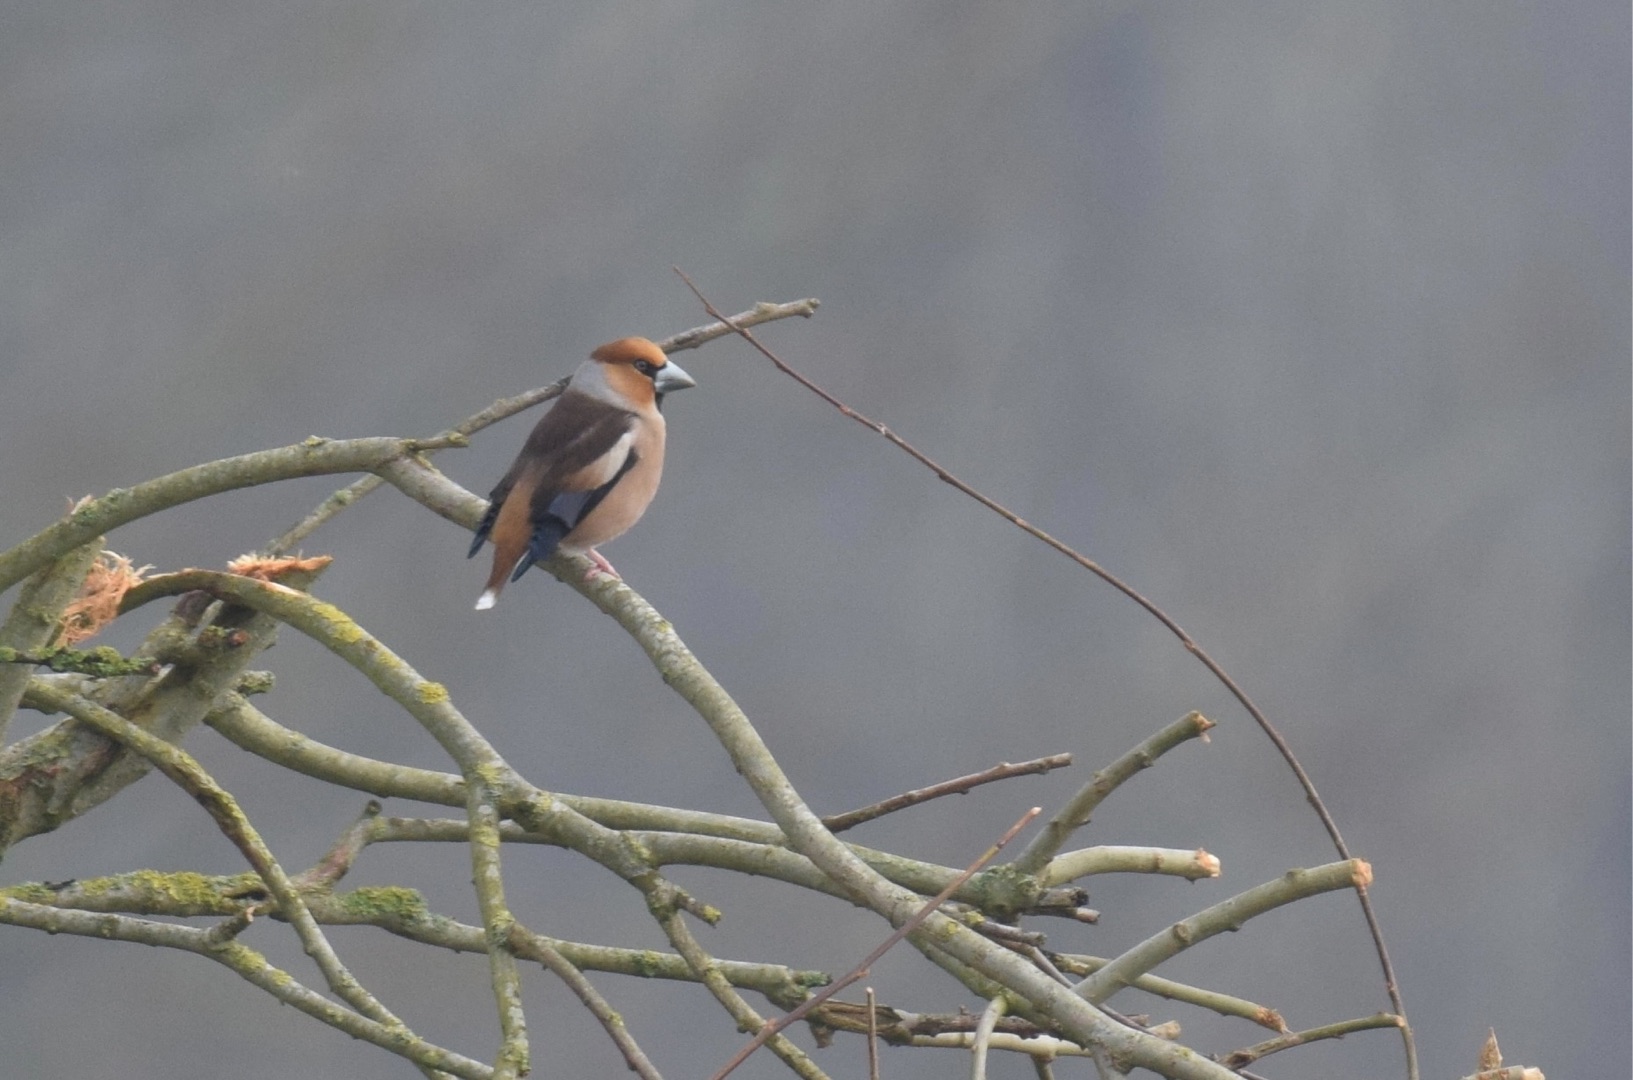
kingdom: Animalia
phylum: Chordata
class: Aves
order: Passeriformes
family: Fringillidae
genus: Coccothraustes
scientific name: Coccothraustes coccothraustes
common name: Kernebider
